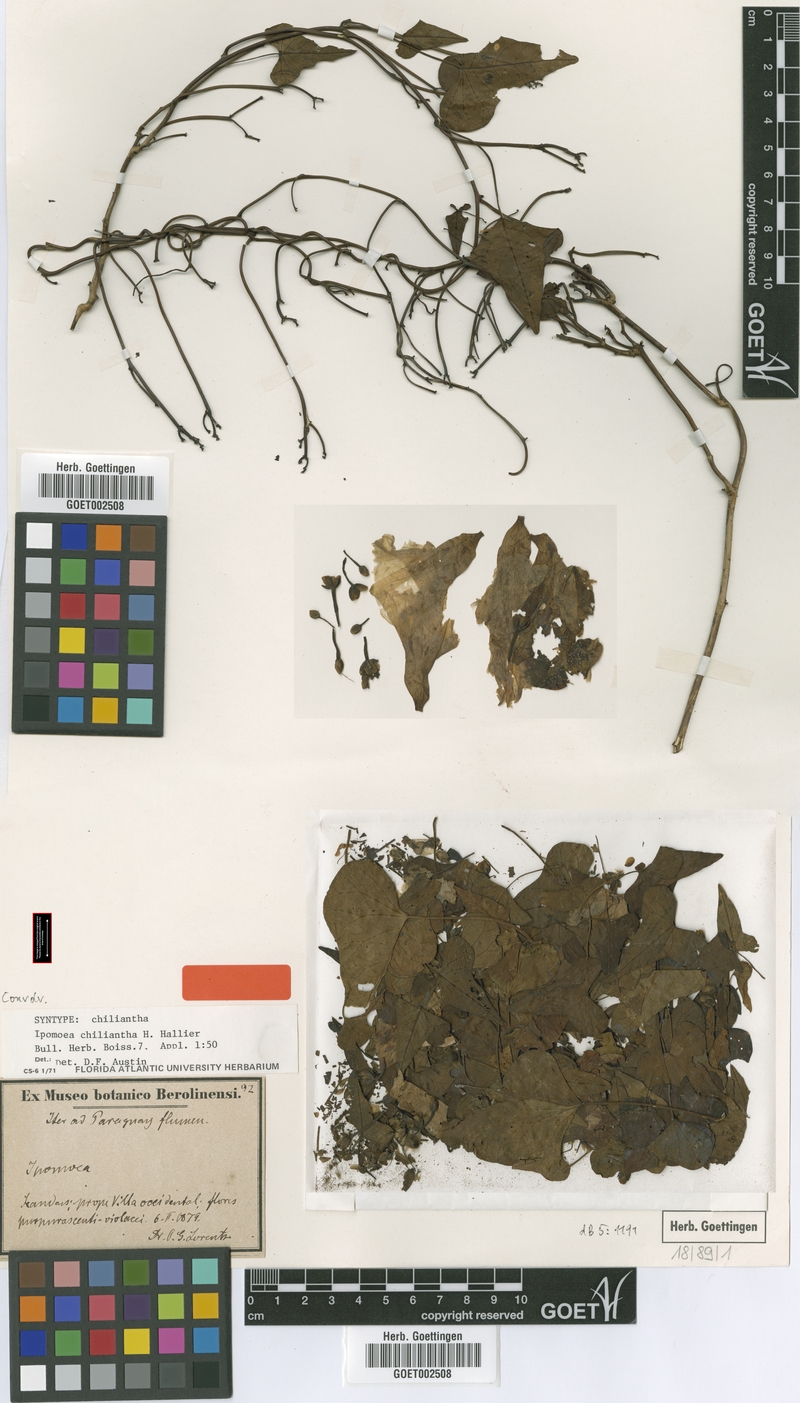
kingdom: Plantae
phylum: Tracheophyta
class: Magnoliopsida
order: Solanales
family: Convolvulaceae
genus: Ipomoea
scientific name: Ipomoea amnicola
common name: Redcenter morning-glory
